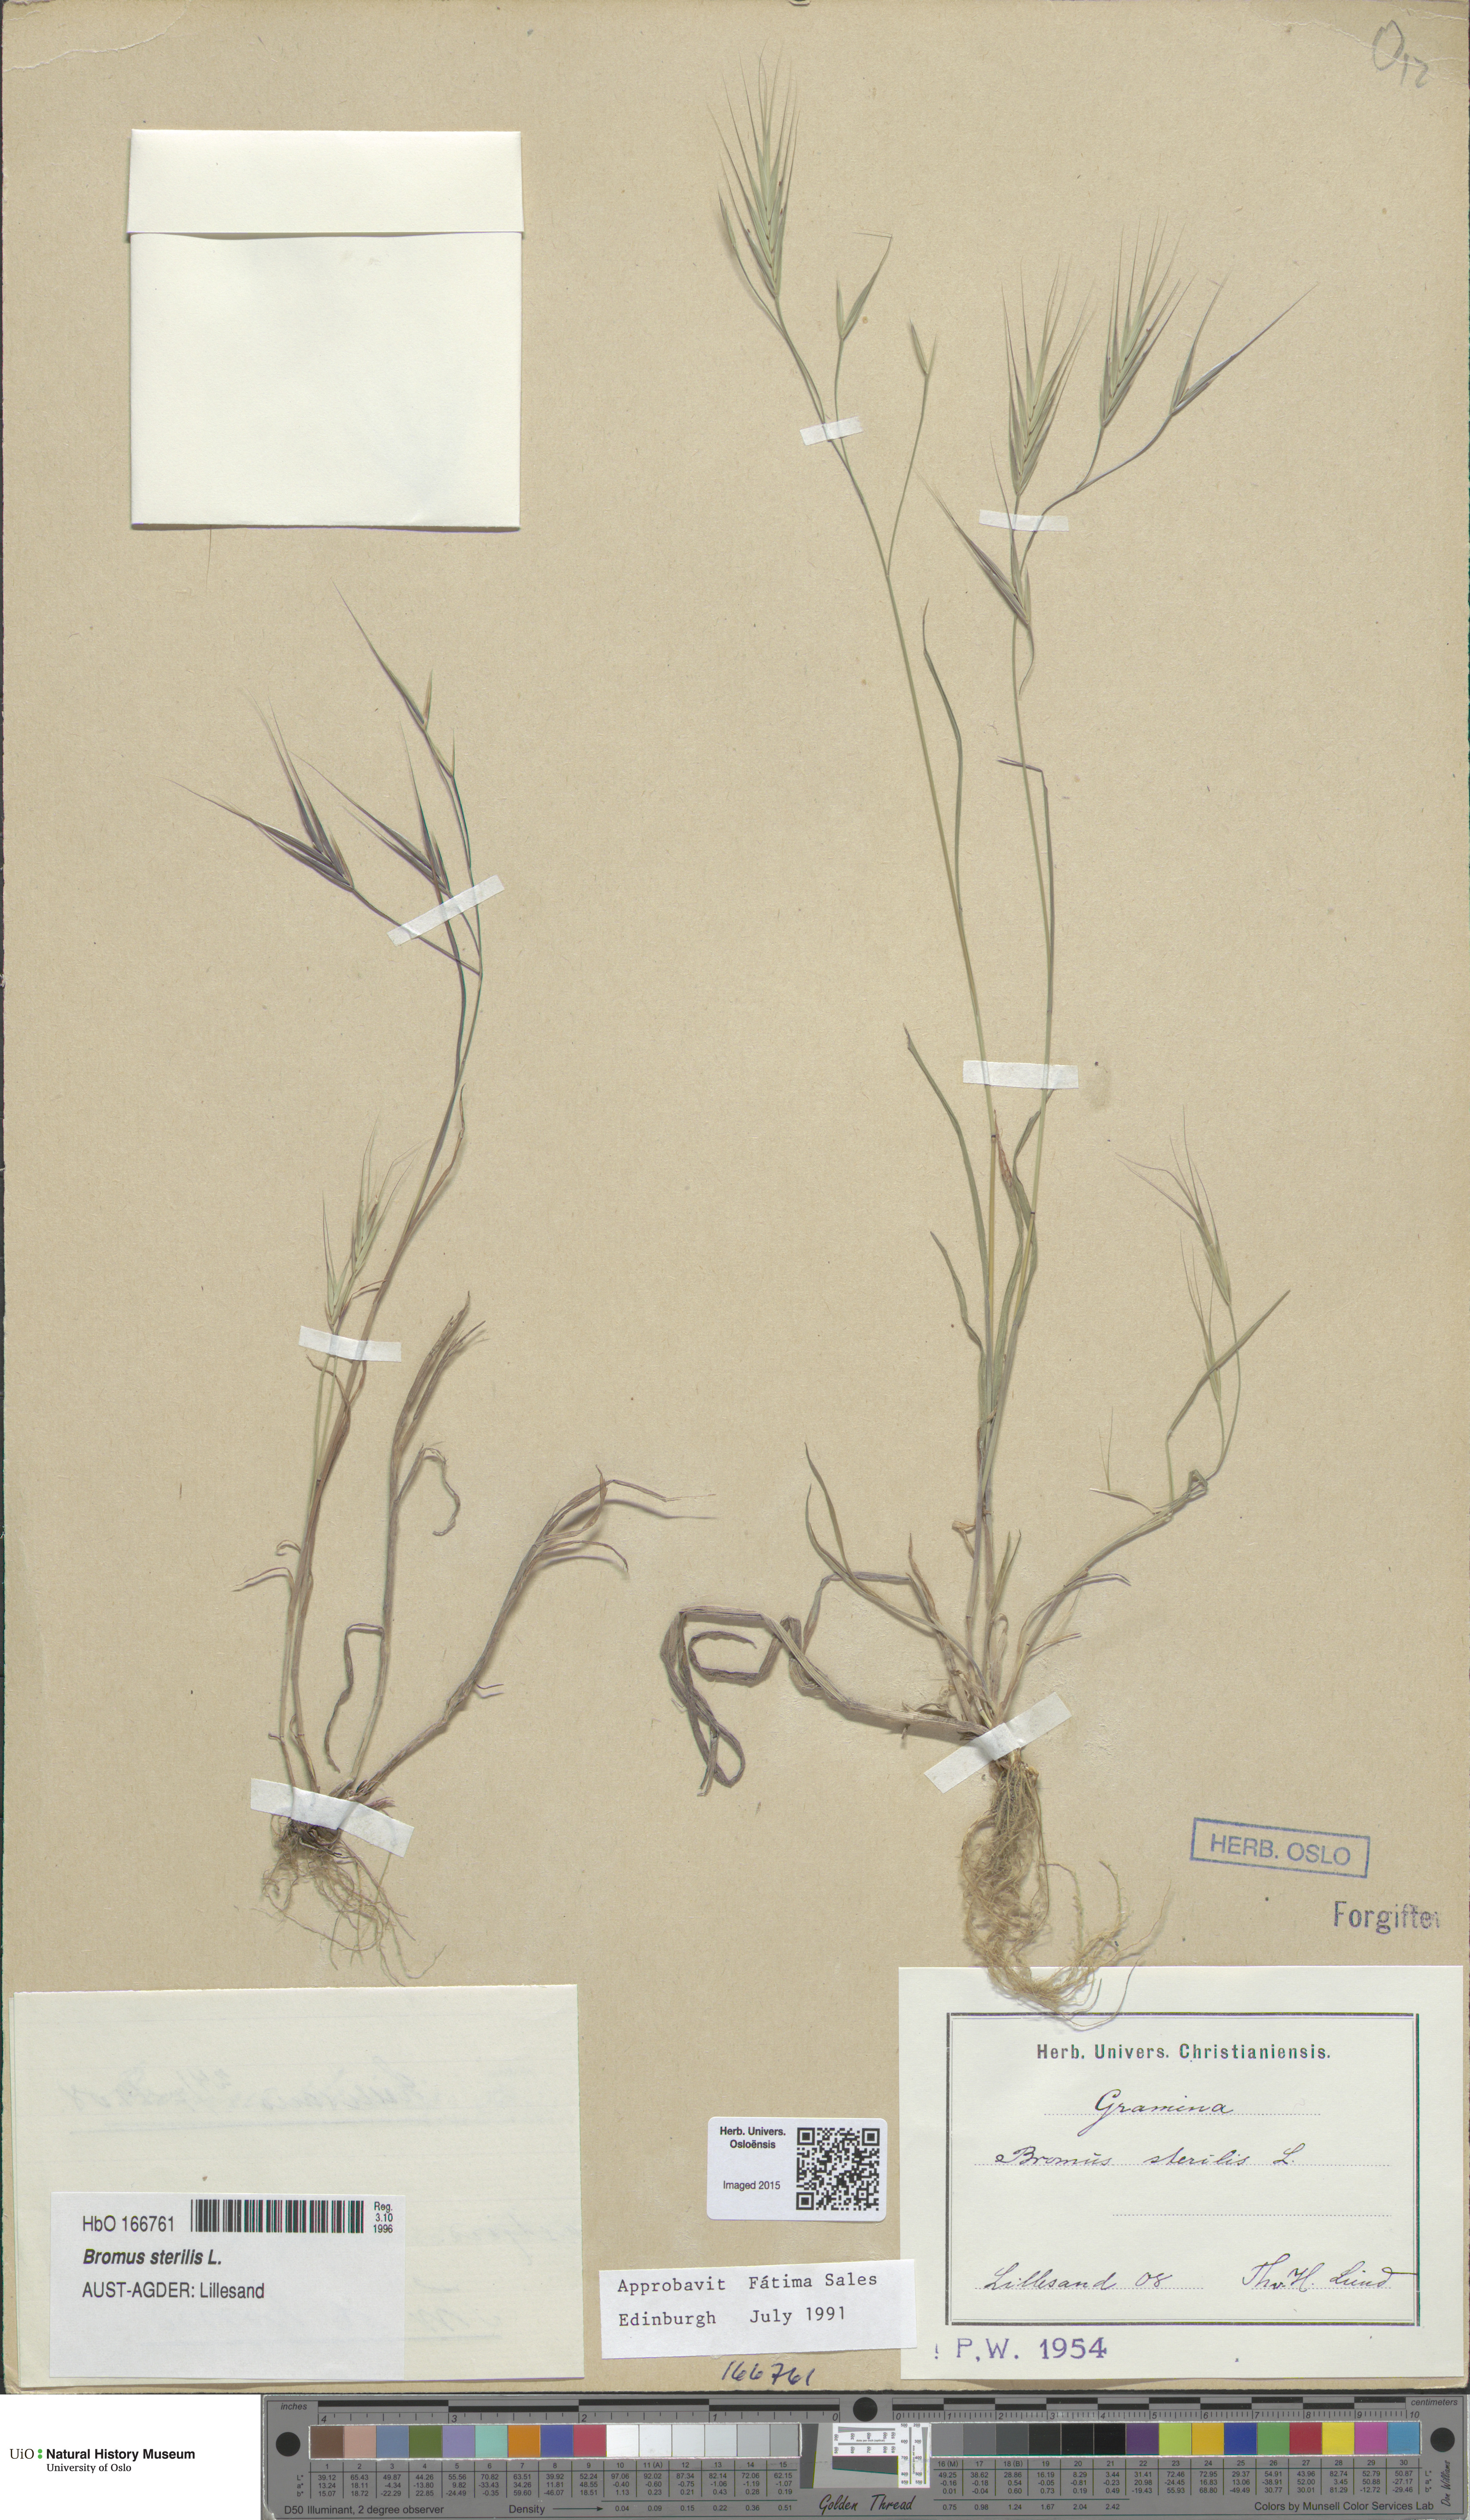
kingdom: Plantae
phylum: Tracheophyta
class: Liliopsida
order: Poales
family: Poaceae
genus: Bromus
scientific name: Bromus sterilis
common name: Poverty brome
